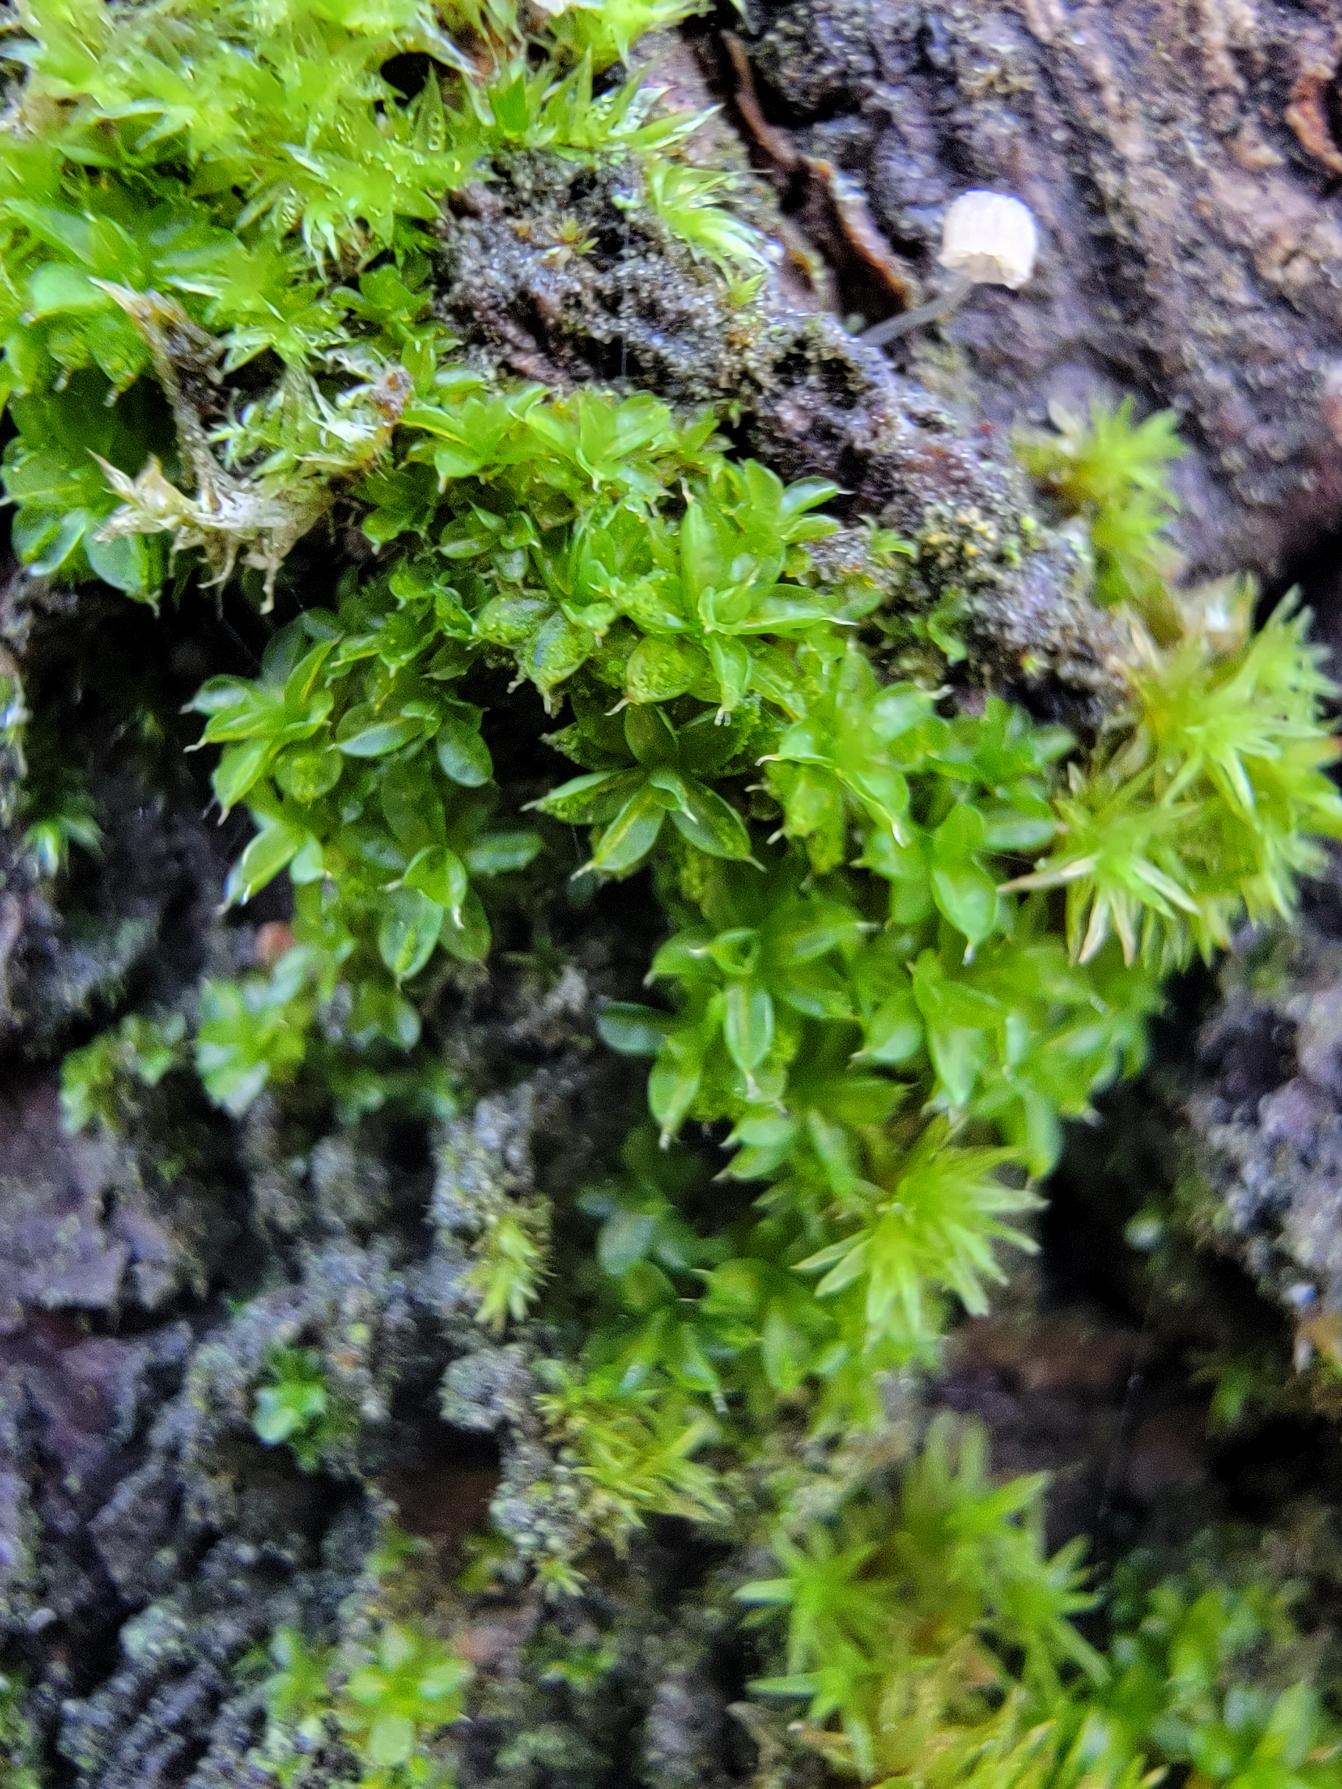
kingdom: Plantae
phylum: Bryophyta
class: Bryopsida
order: Pottiales
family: Pottiaceae
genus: Syntrichia
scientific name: Syntrichia papillosa
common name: Bark-hårstjerne
